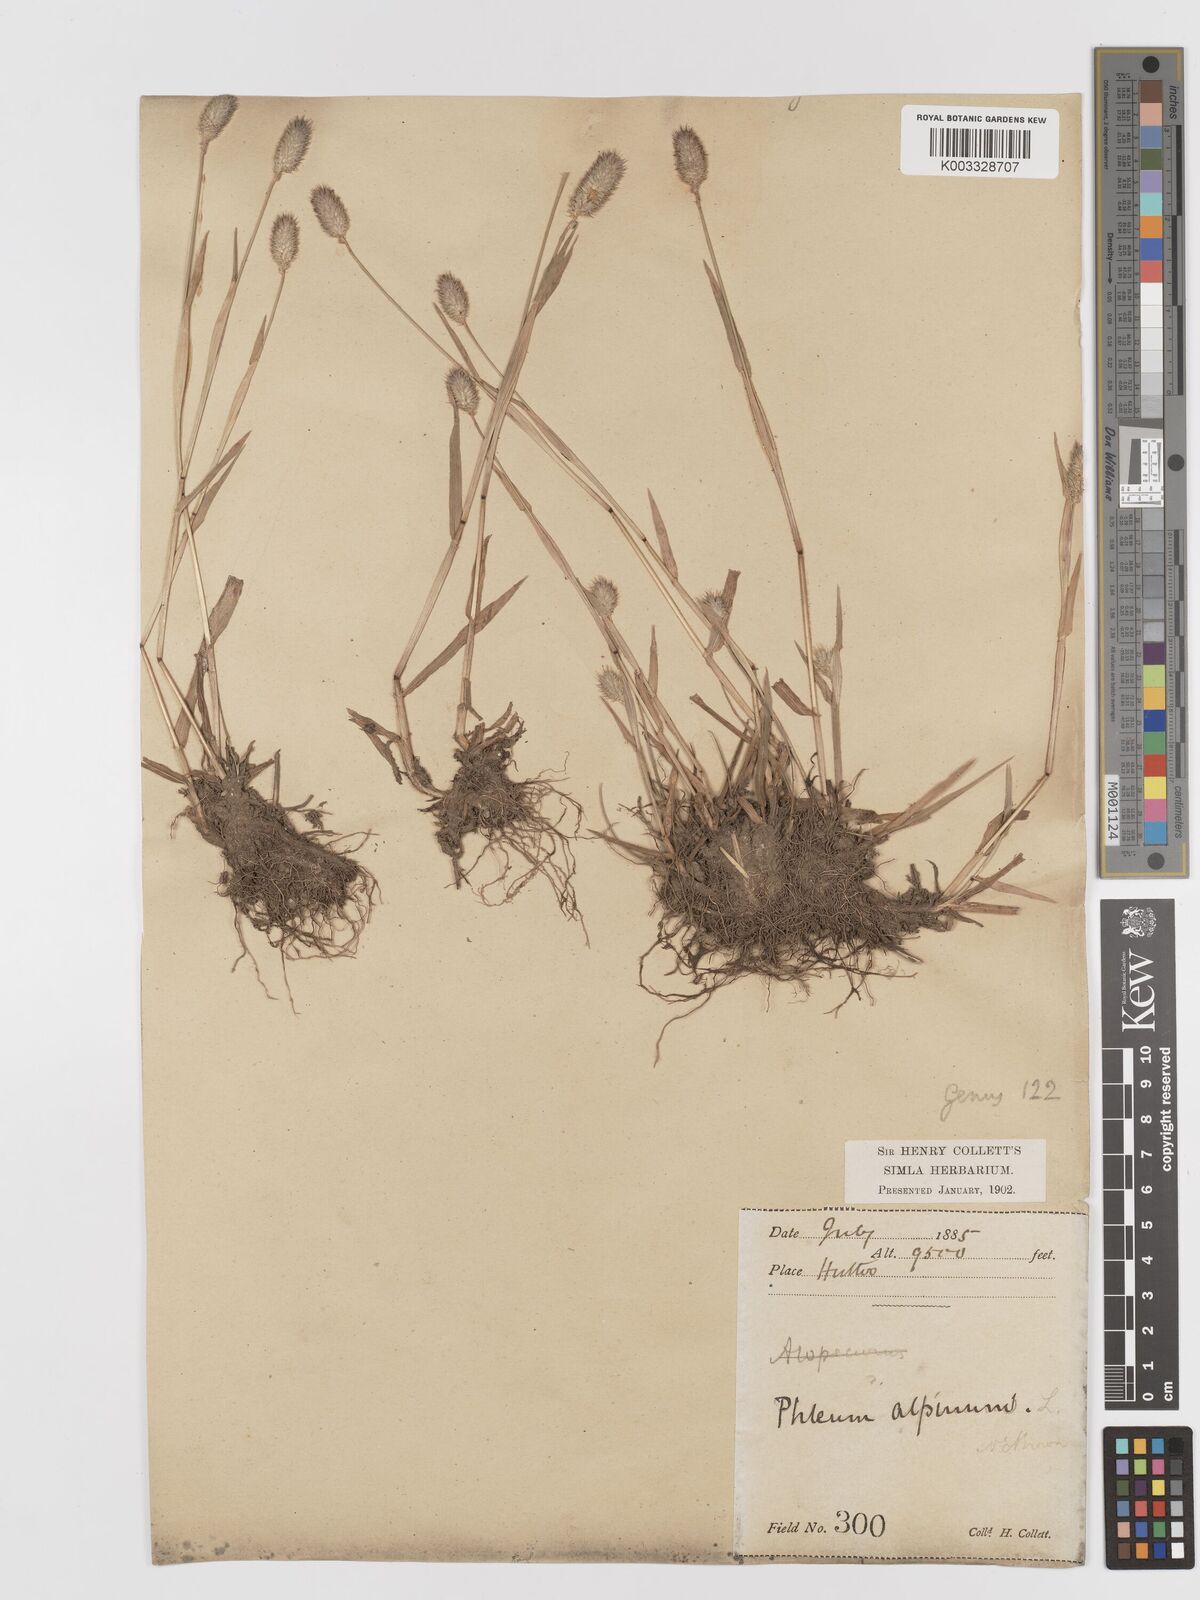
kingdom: Plantae
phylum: Tracheophyta
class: Liliopsida
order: Poales
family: Poaceae
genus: Phleum
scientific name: Phleum alpinum
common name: Alpine cat's-tail
